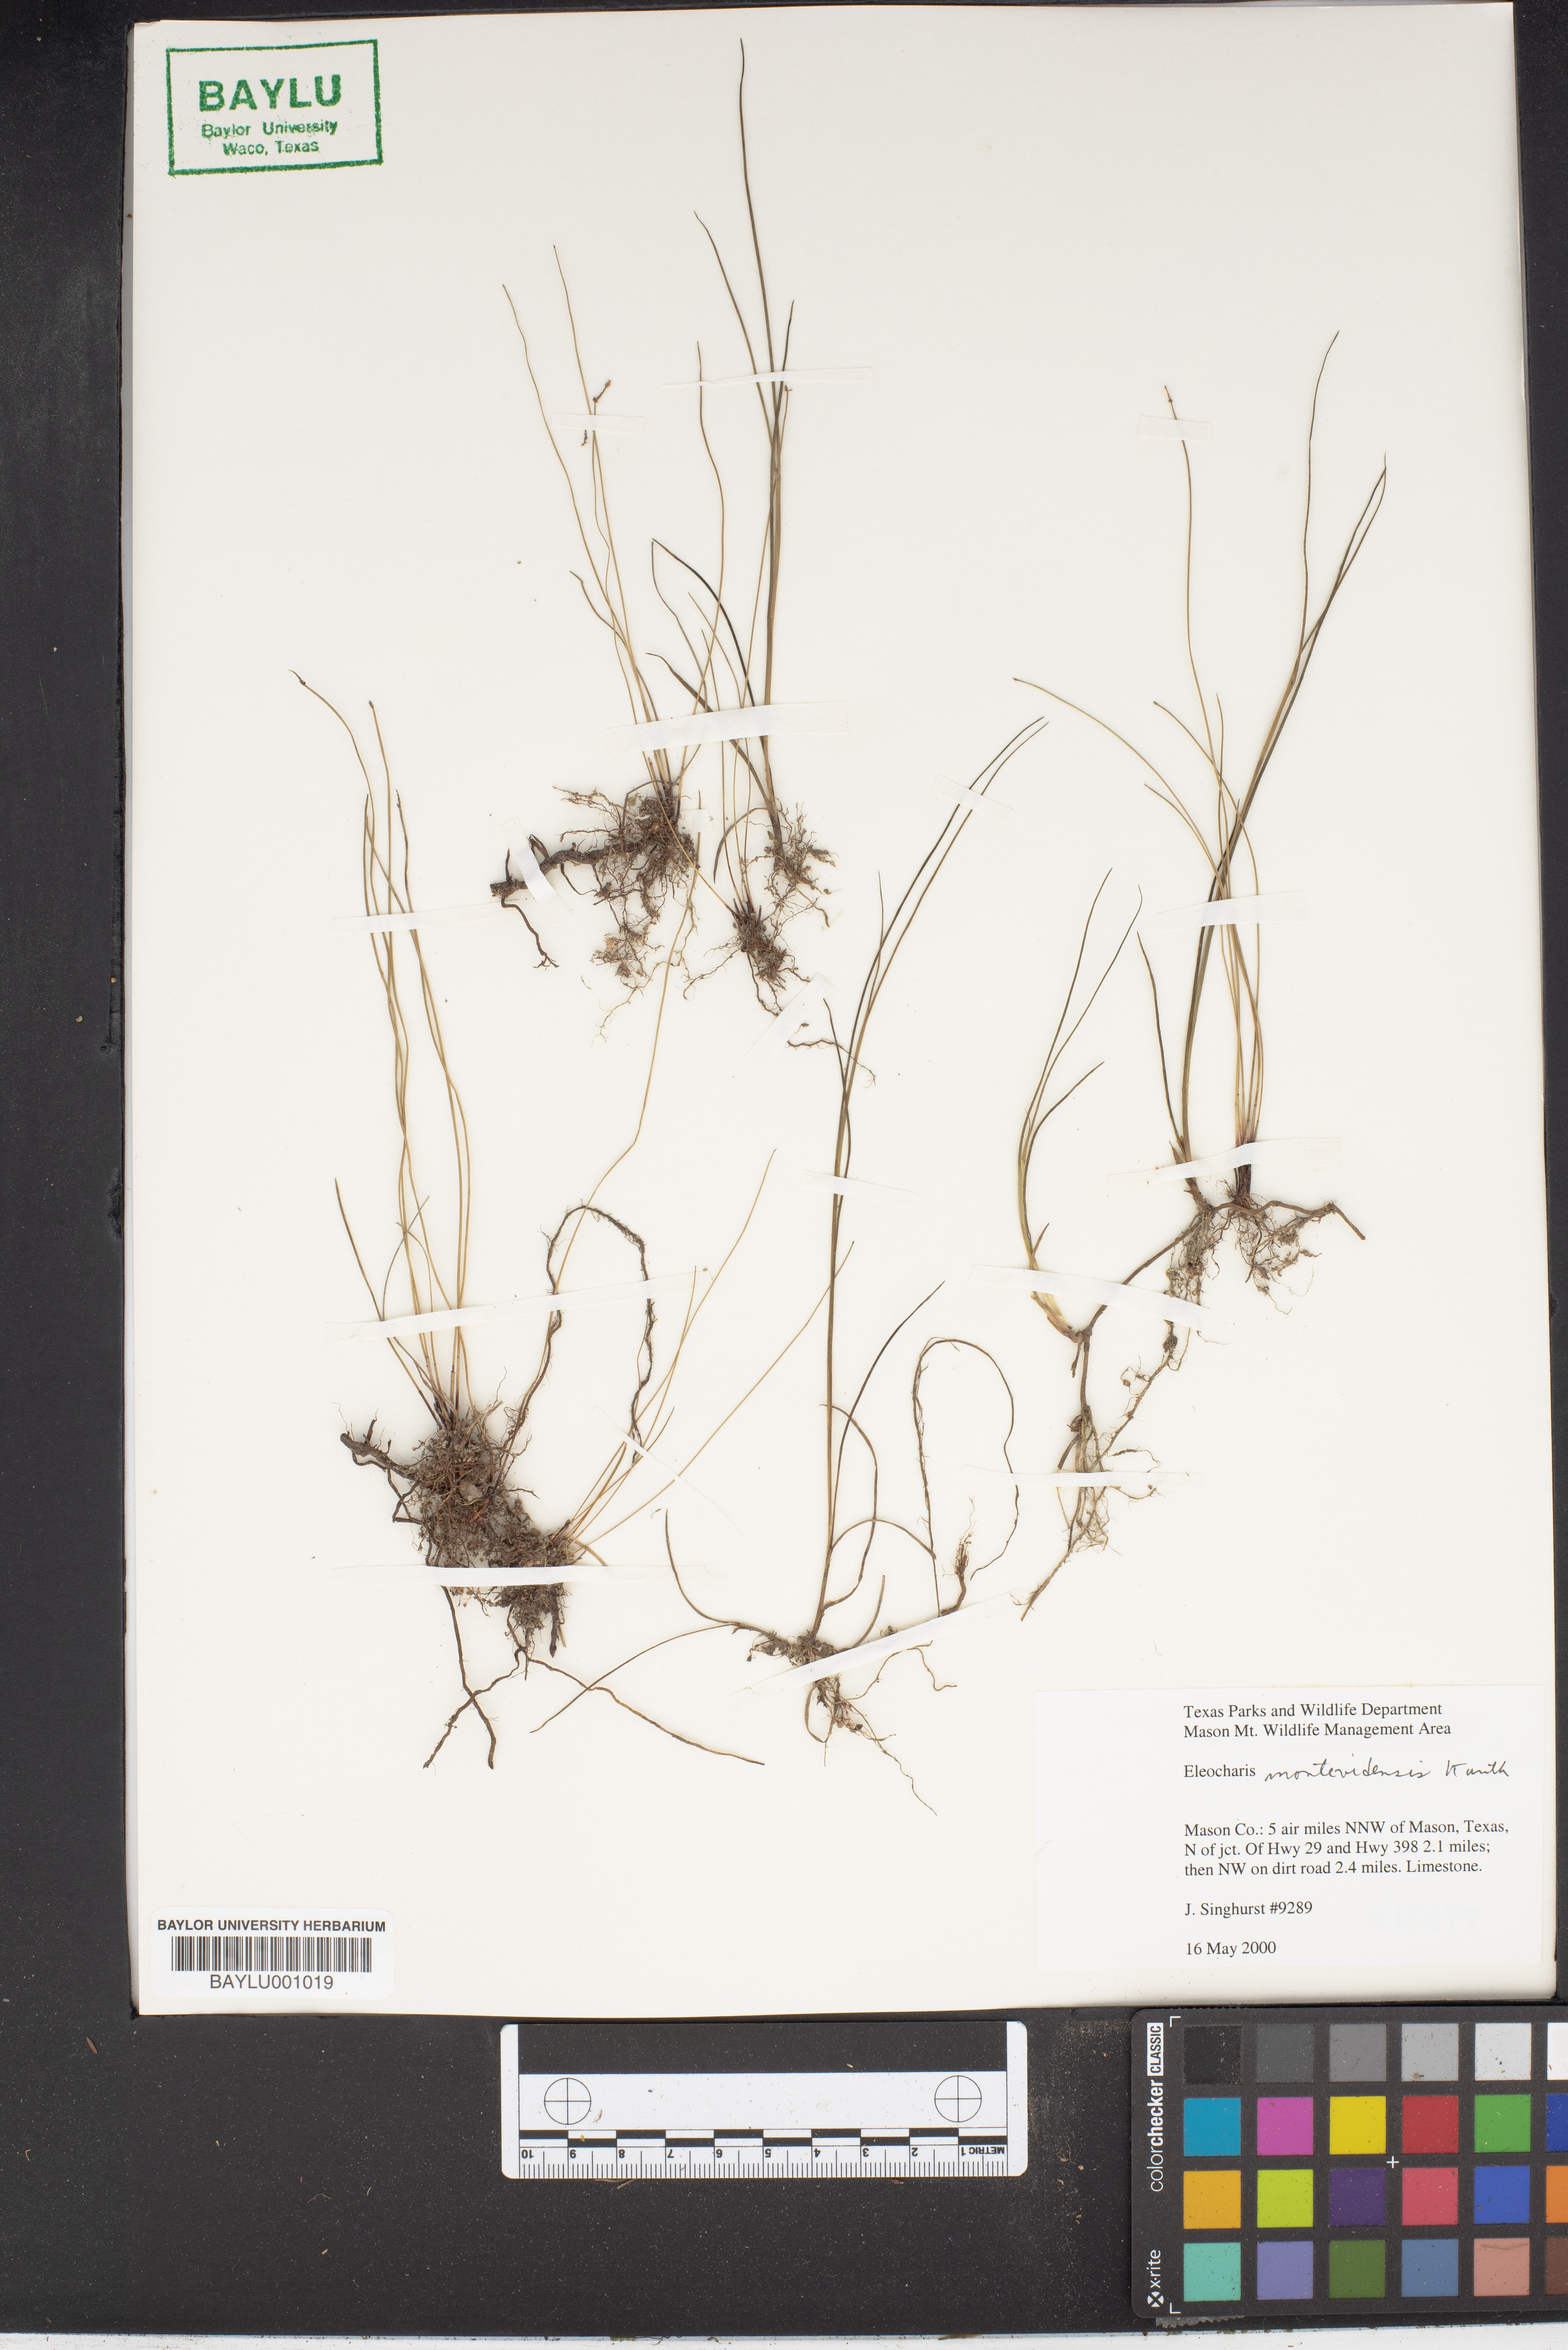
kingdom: Plantae
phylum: Tracheophyta
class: Liliopsida
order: Poales
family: Cyperaceae
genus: Eleocharis
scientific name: Eleocharis montevidensis
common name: Sand spike-rush
